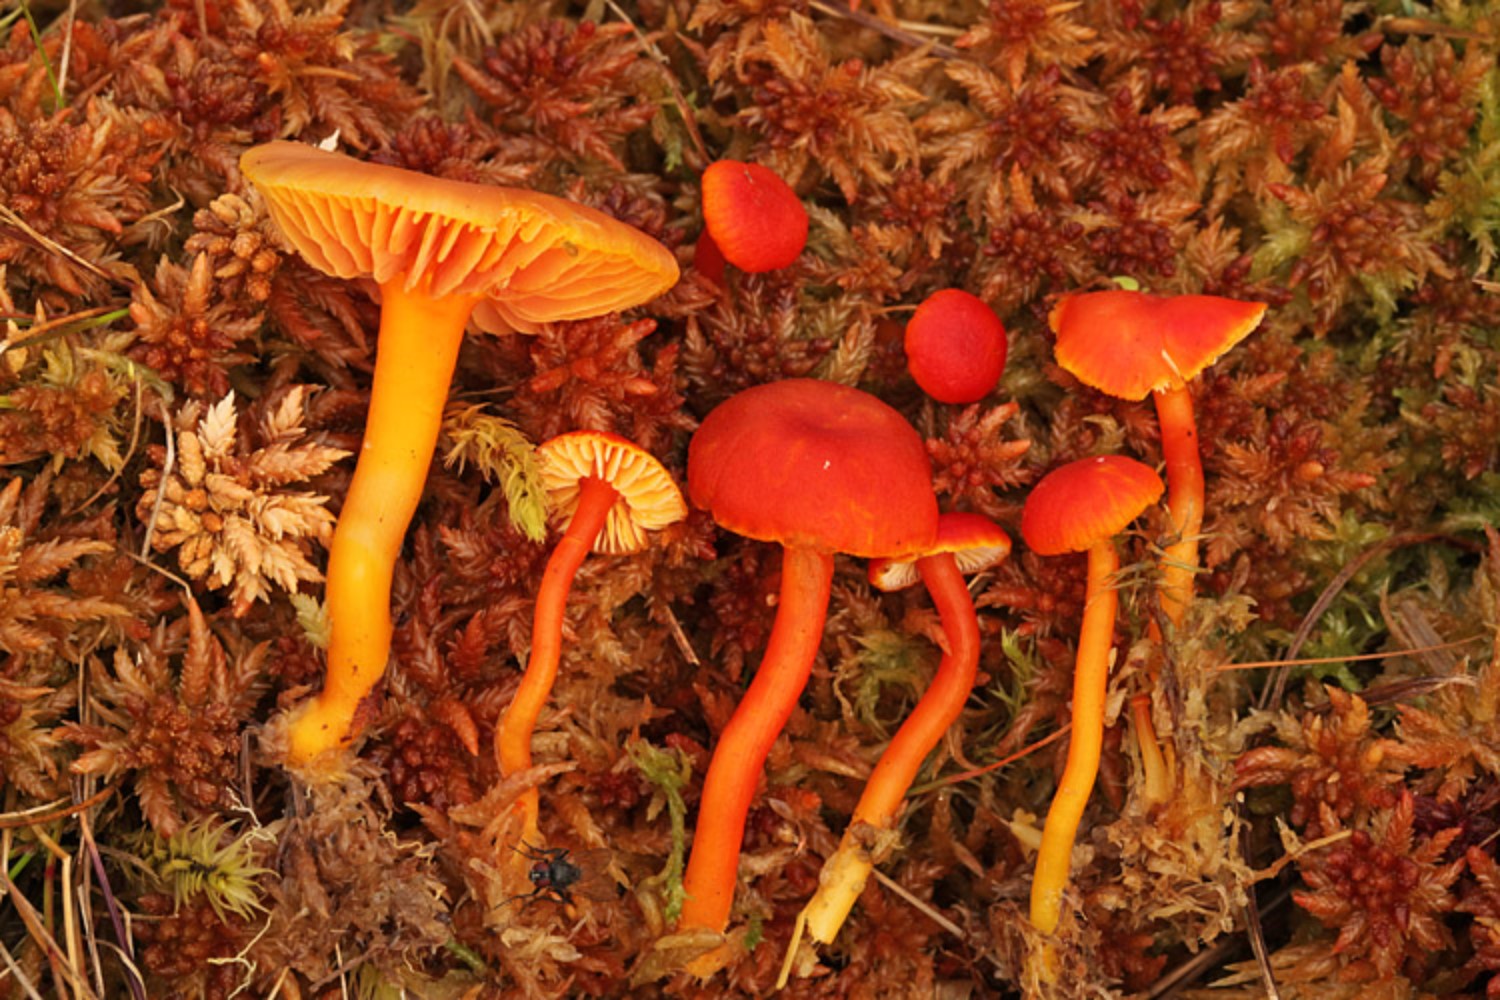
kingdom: Fungi
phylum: Basidiomycota
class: Agaricomycetes
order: Agaricales
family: Hygrophoraceae
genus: Hygrocybe
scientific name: Hygrocybe miniata
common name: mønje-vokshat
